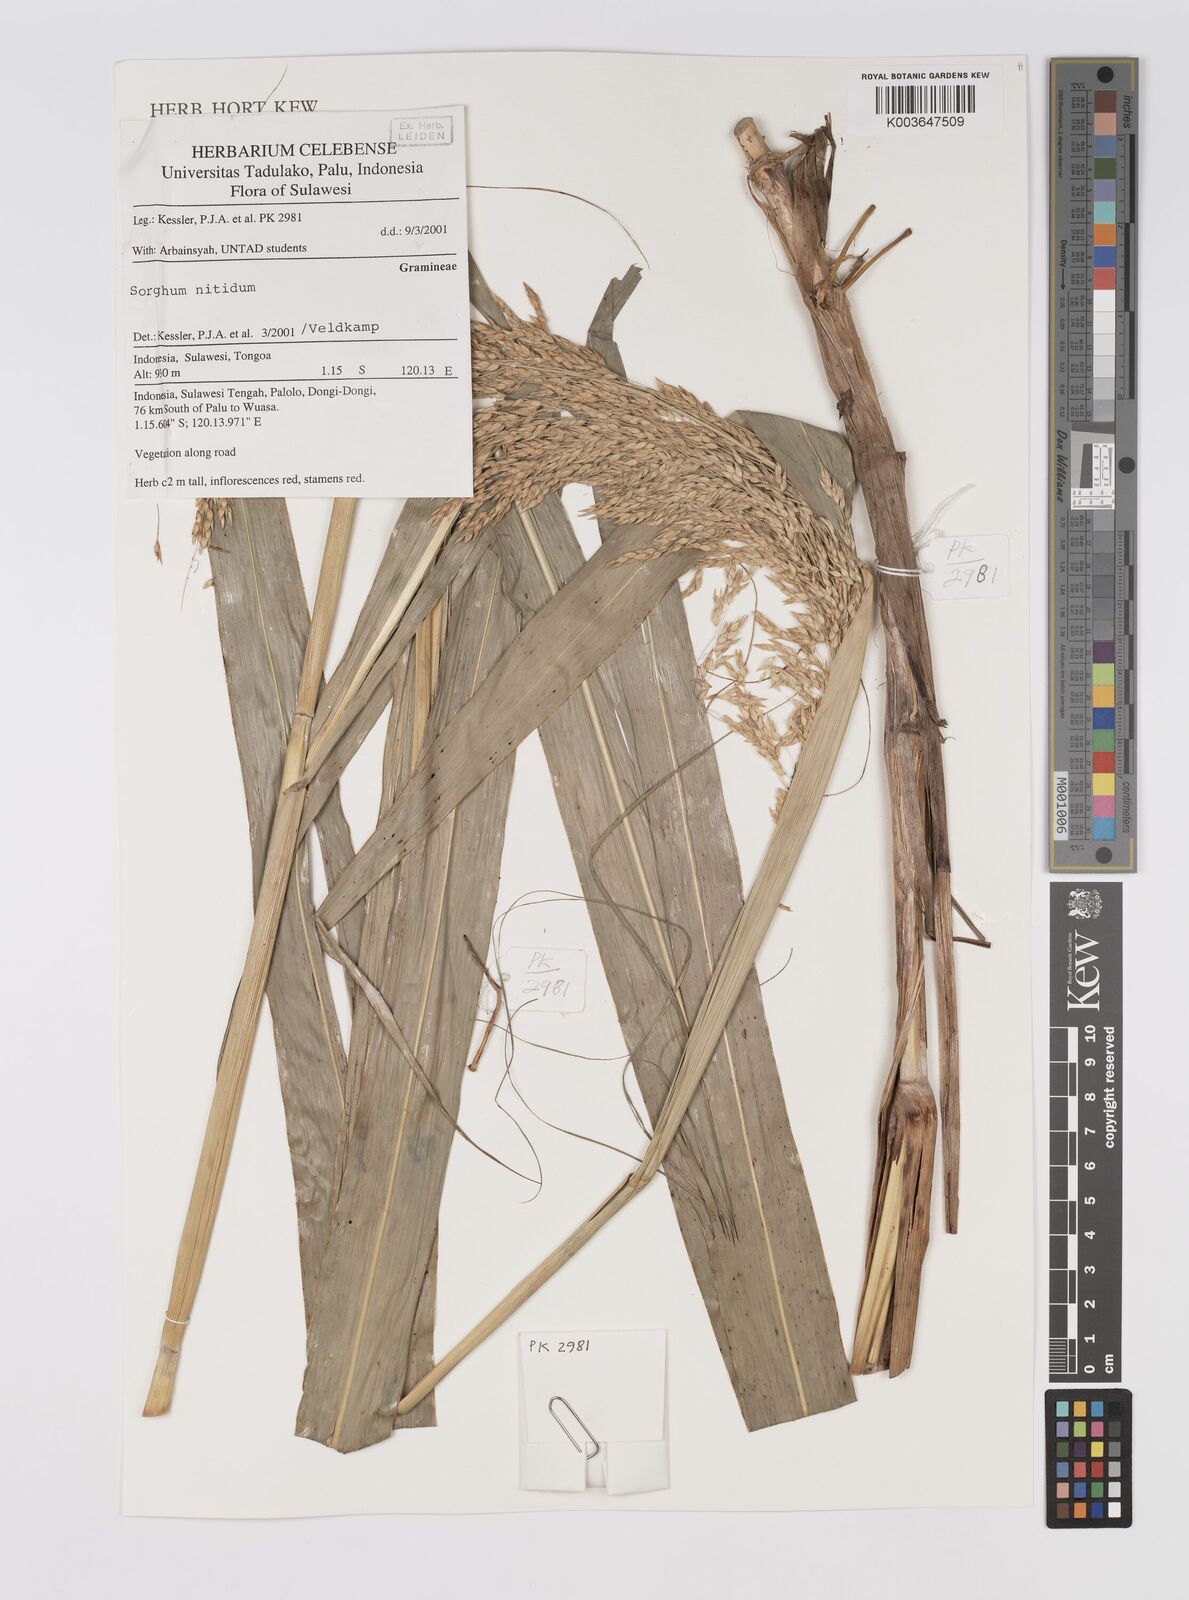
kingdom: Plantae
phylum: Tracheophyta
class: Liliopsida
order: Poales
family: Poaceae
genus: Sorghum
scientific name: Sorghum nitidum
